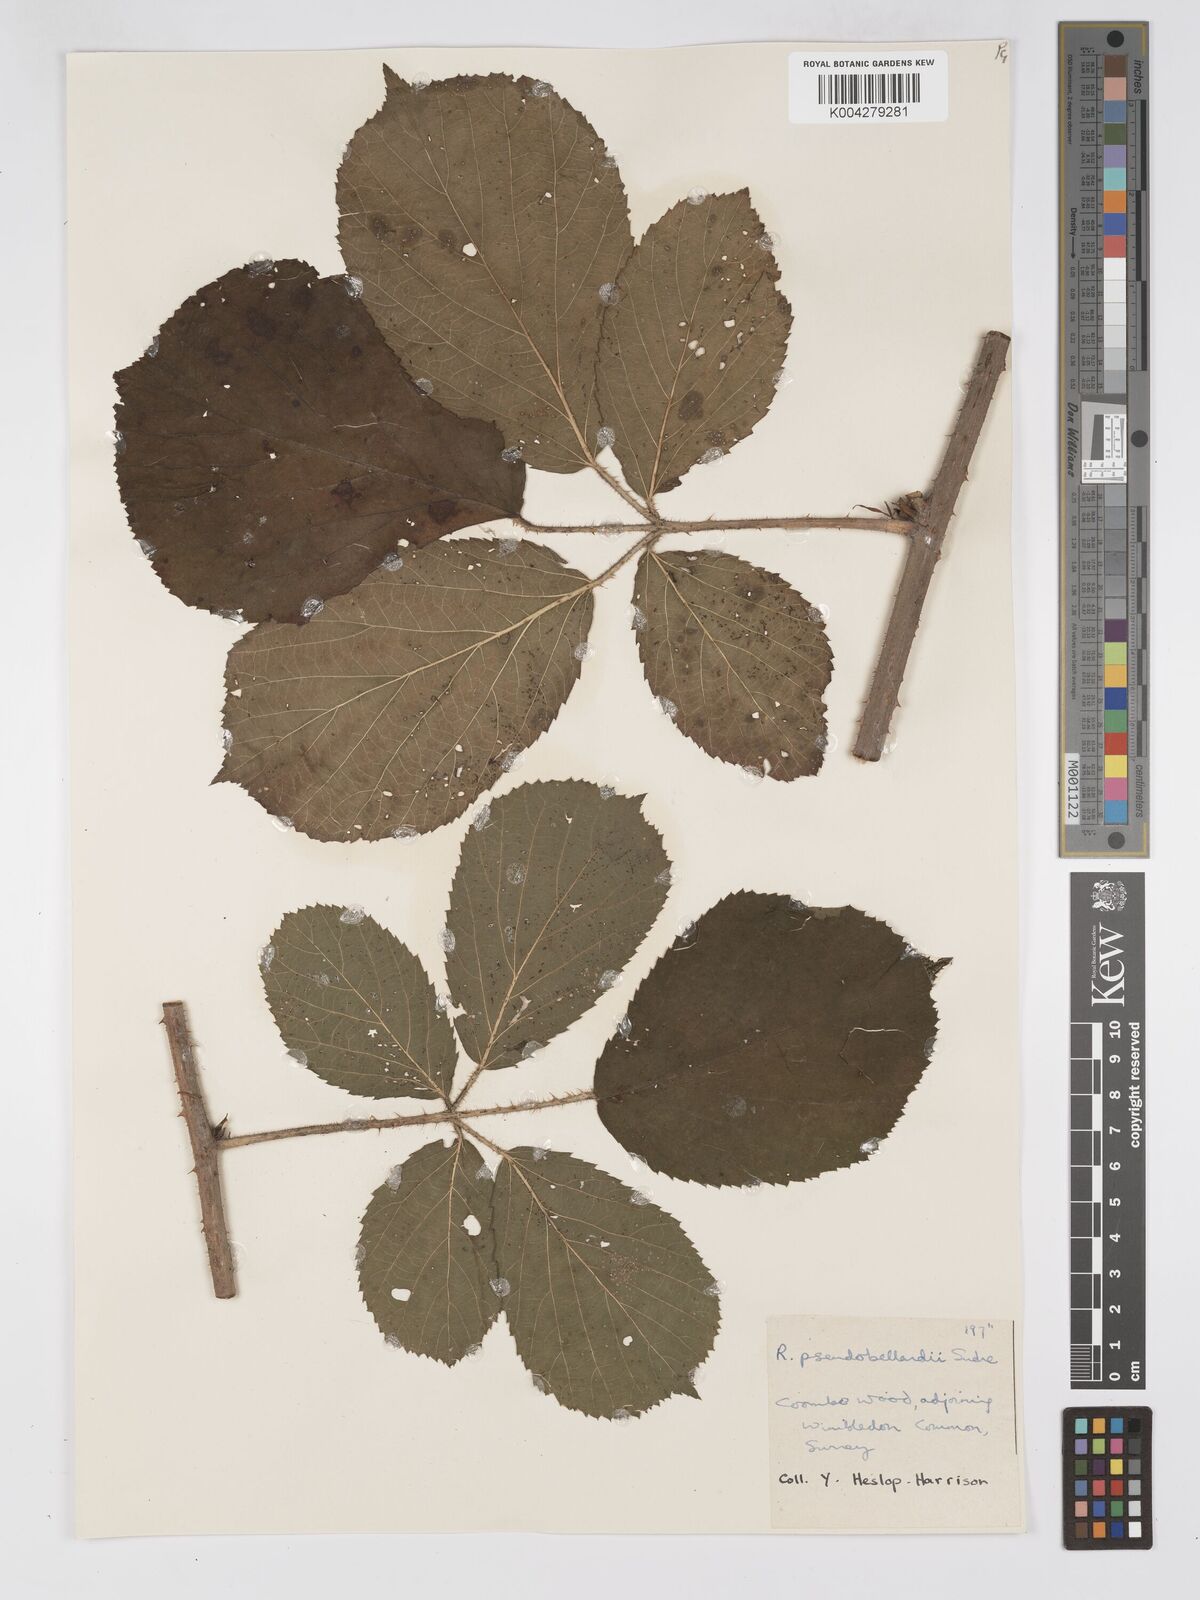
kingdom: Plantae
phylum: Tracheophyta
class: Magnoliopsida
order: Rosales
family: Rosaceae
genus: Rubus
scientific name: Rubus
